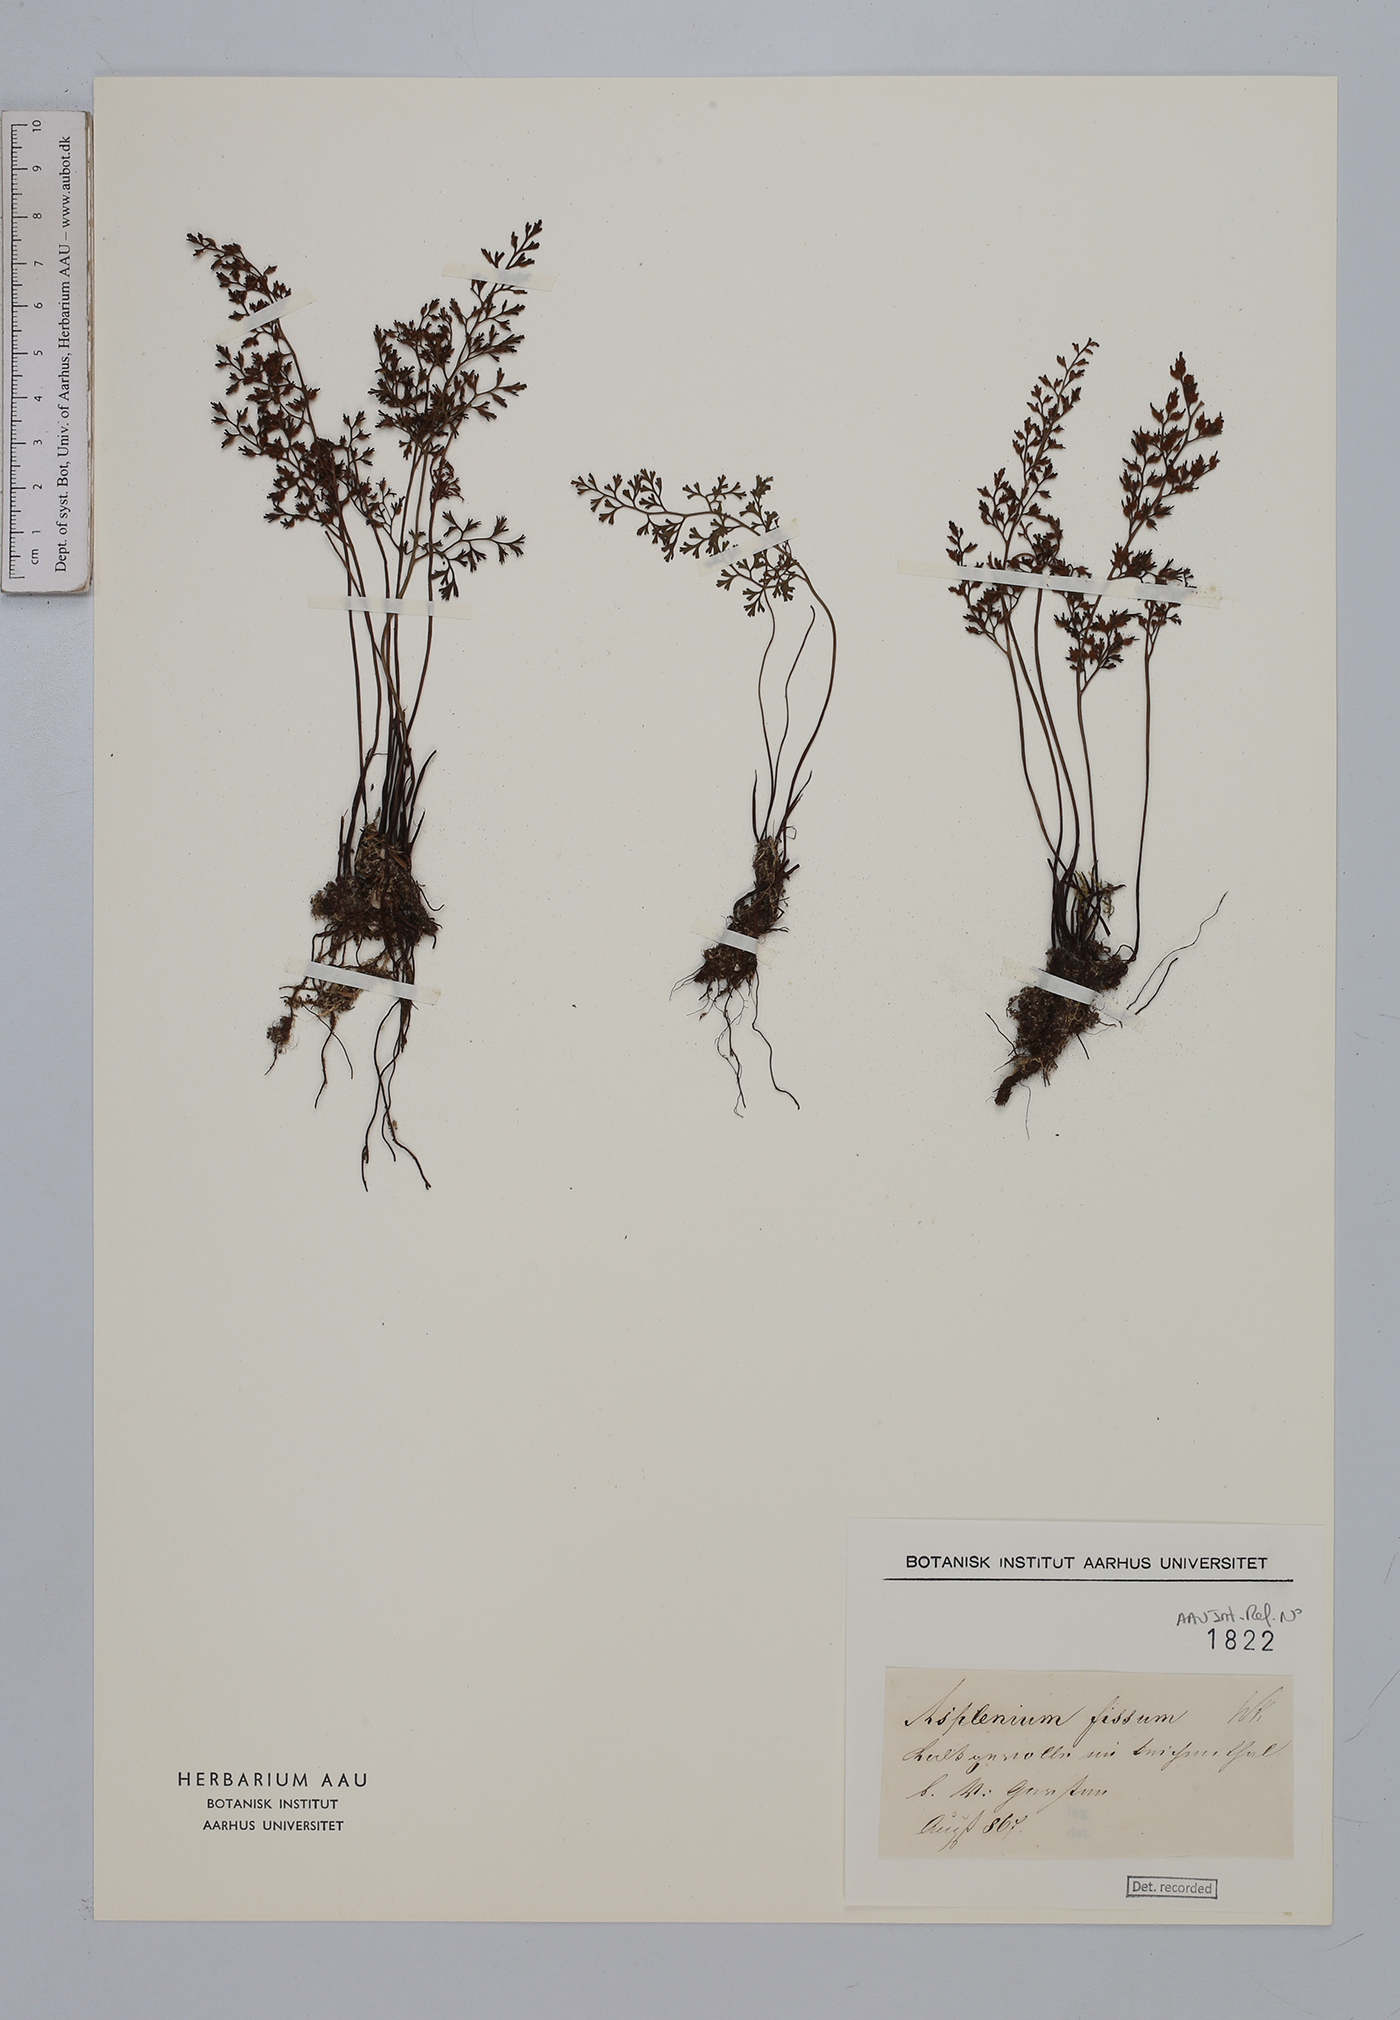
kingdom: Plantae
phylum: Tracheophyta
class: Polypodiopsida
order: Polypodiales
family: Aspleniaceae
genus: Asplenium
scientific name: Asplenium fissum
